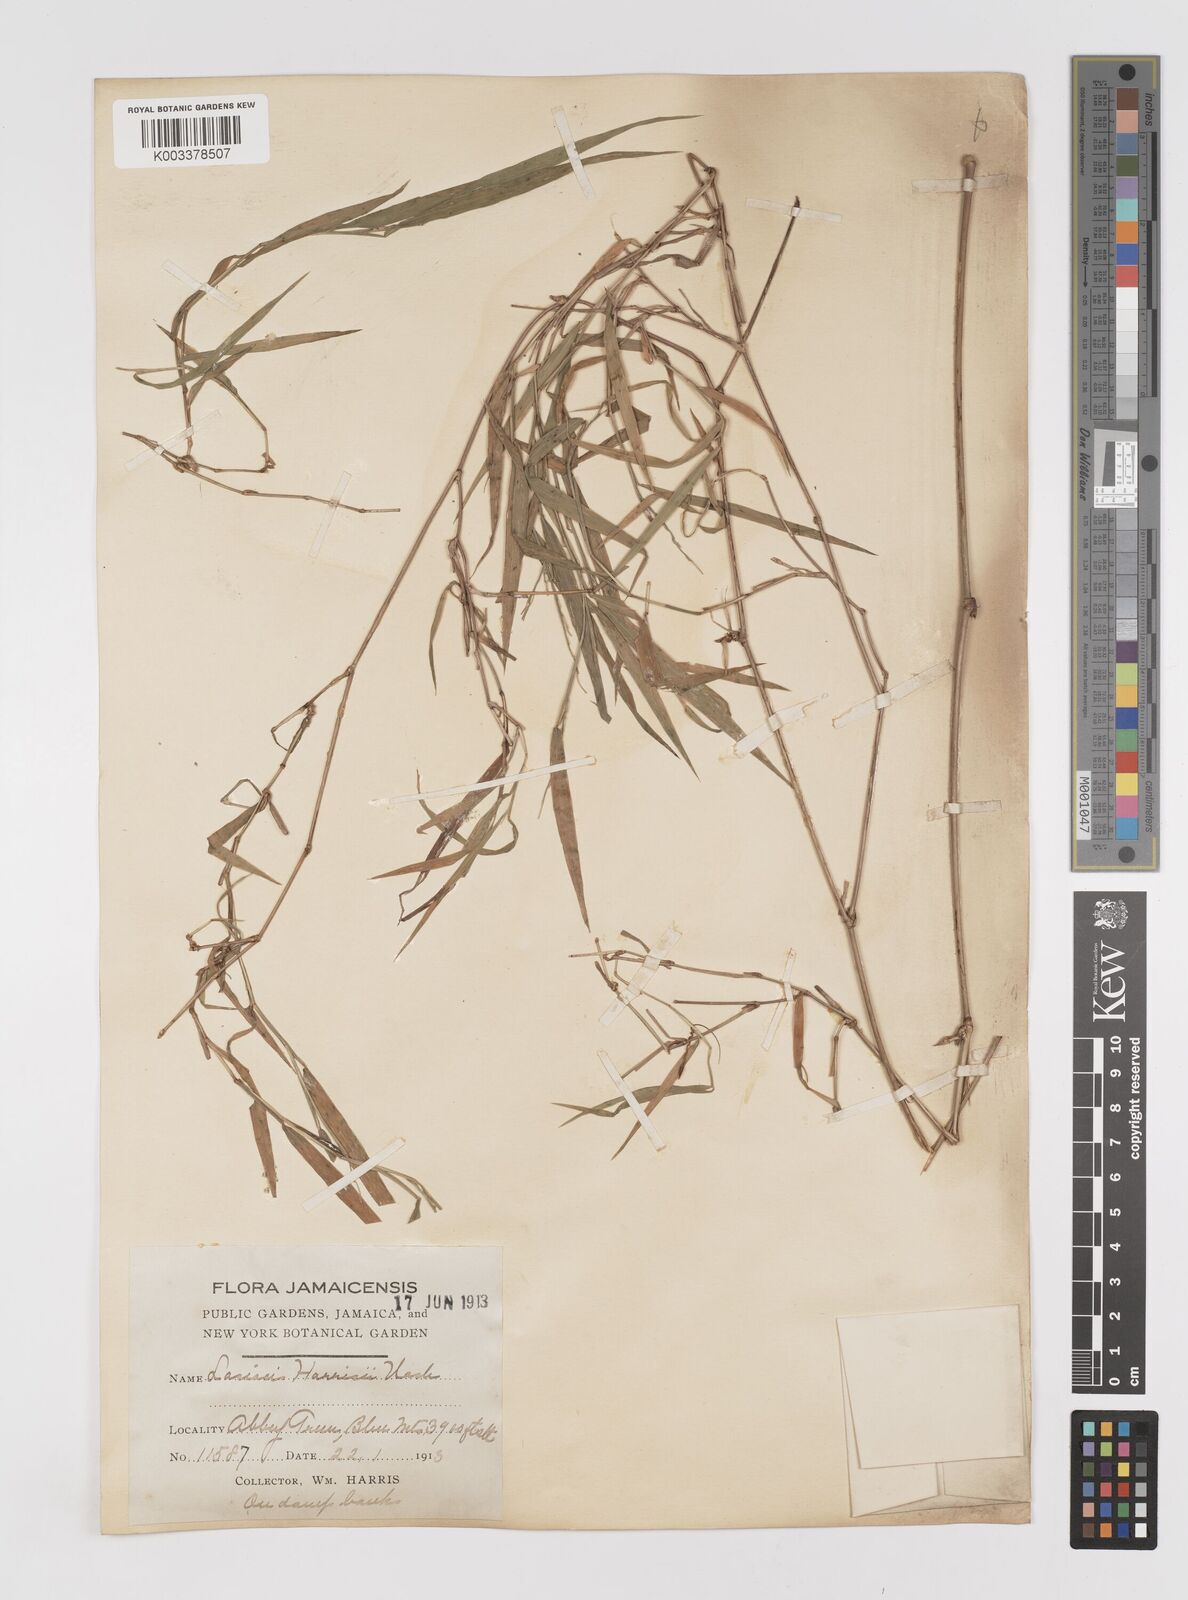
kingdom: Plantae
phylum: Tracheophyta
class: Liliopsida
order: Poales
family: Poaceae
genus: Lasiacis
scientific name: Lasiacis divaricata
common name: Smallcane
